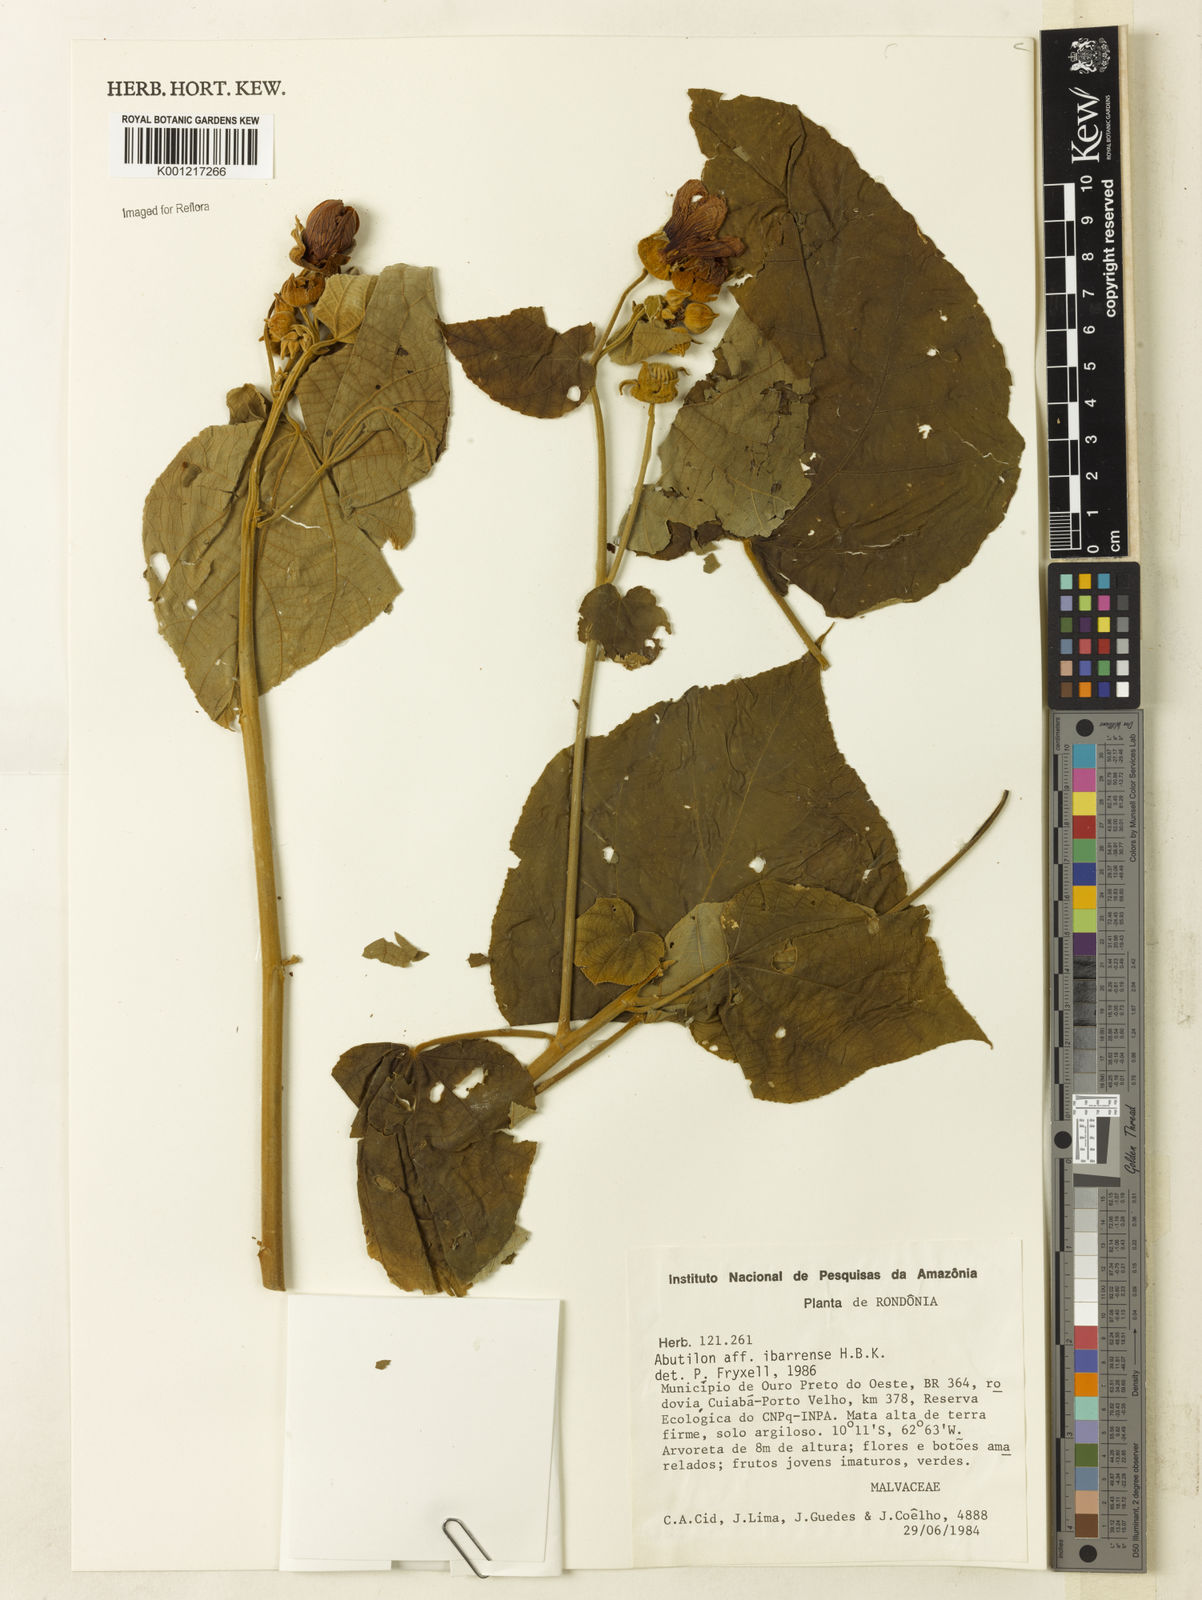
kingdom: Plantae
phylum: Tracheophyta
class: Magnoliopsida
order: Malvales
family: Malvaceae
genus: Abutilon
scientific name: Abutilon ibarrense
